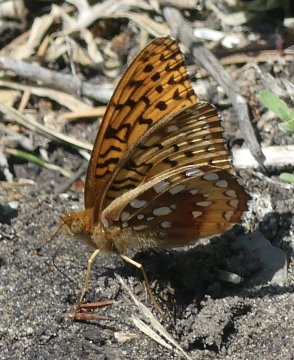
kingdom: Animalia
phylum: Arthropoda
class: Insecta
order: Lepidoptera
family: Nymphalidae
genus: Speyeria
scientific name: Speyeria atlantis
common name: Northwestern Fritillary
